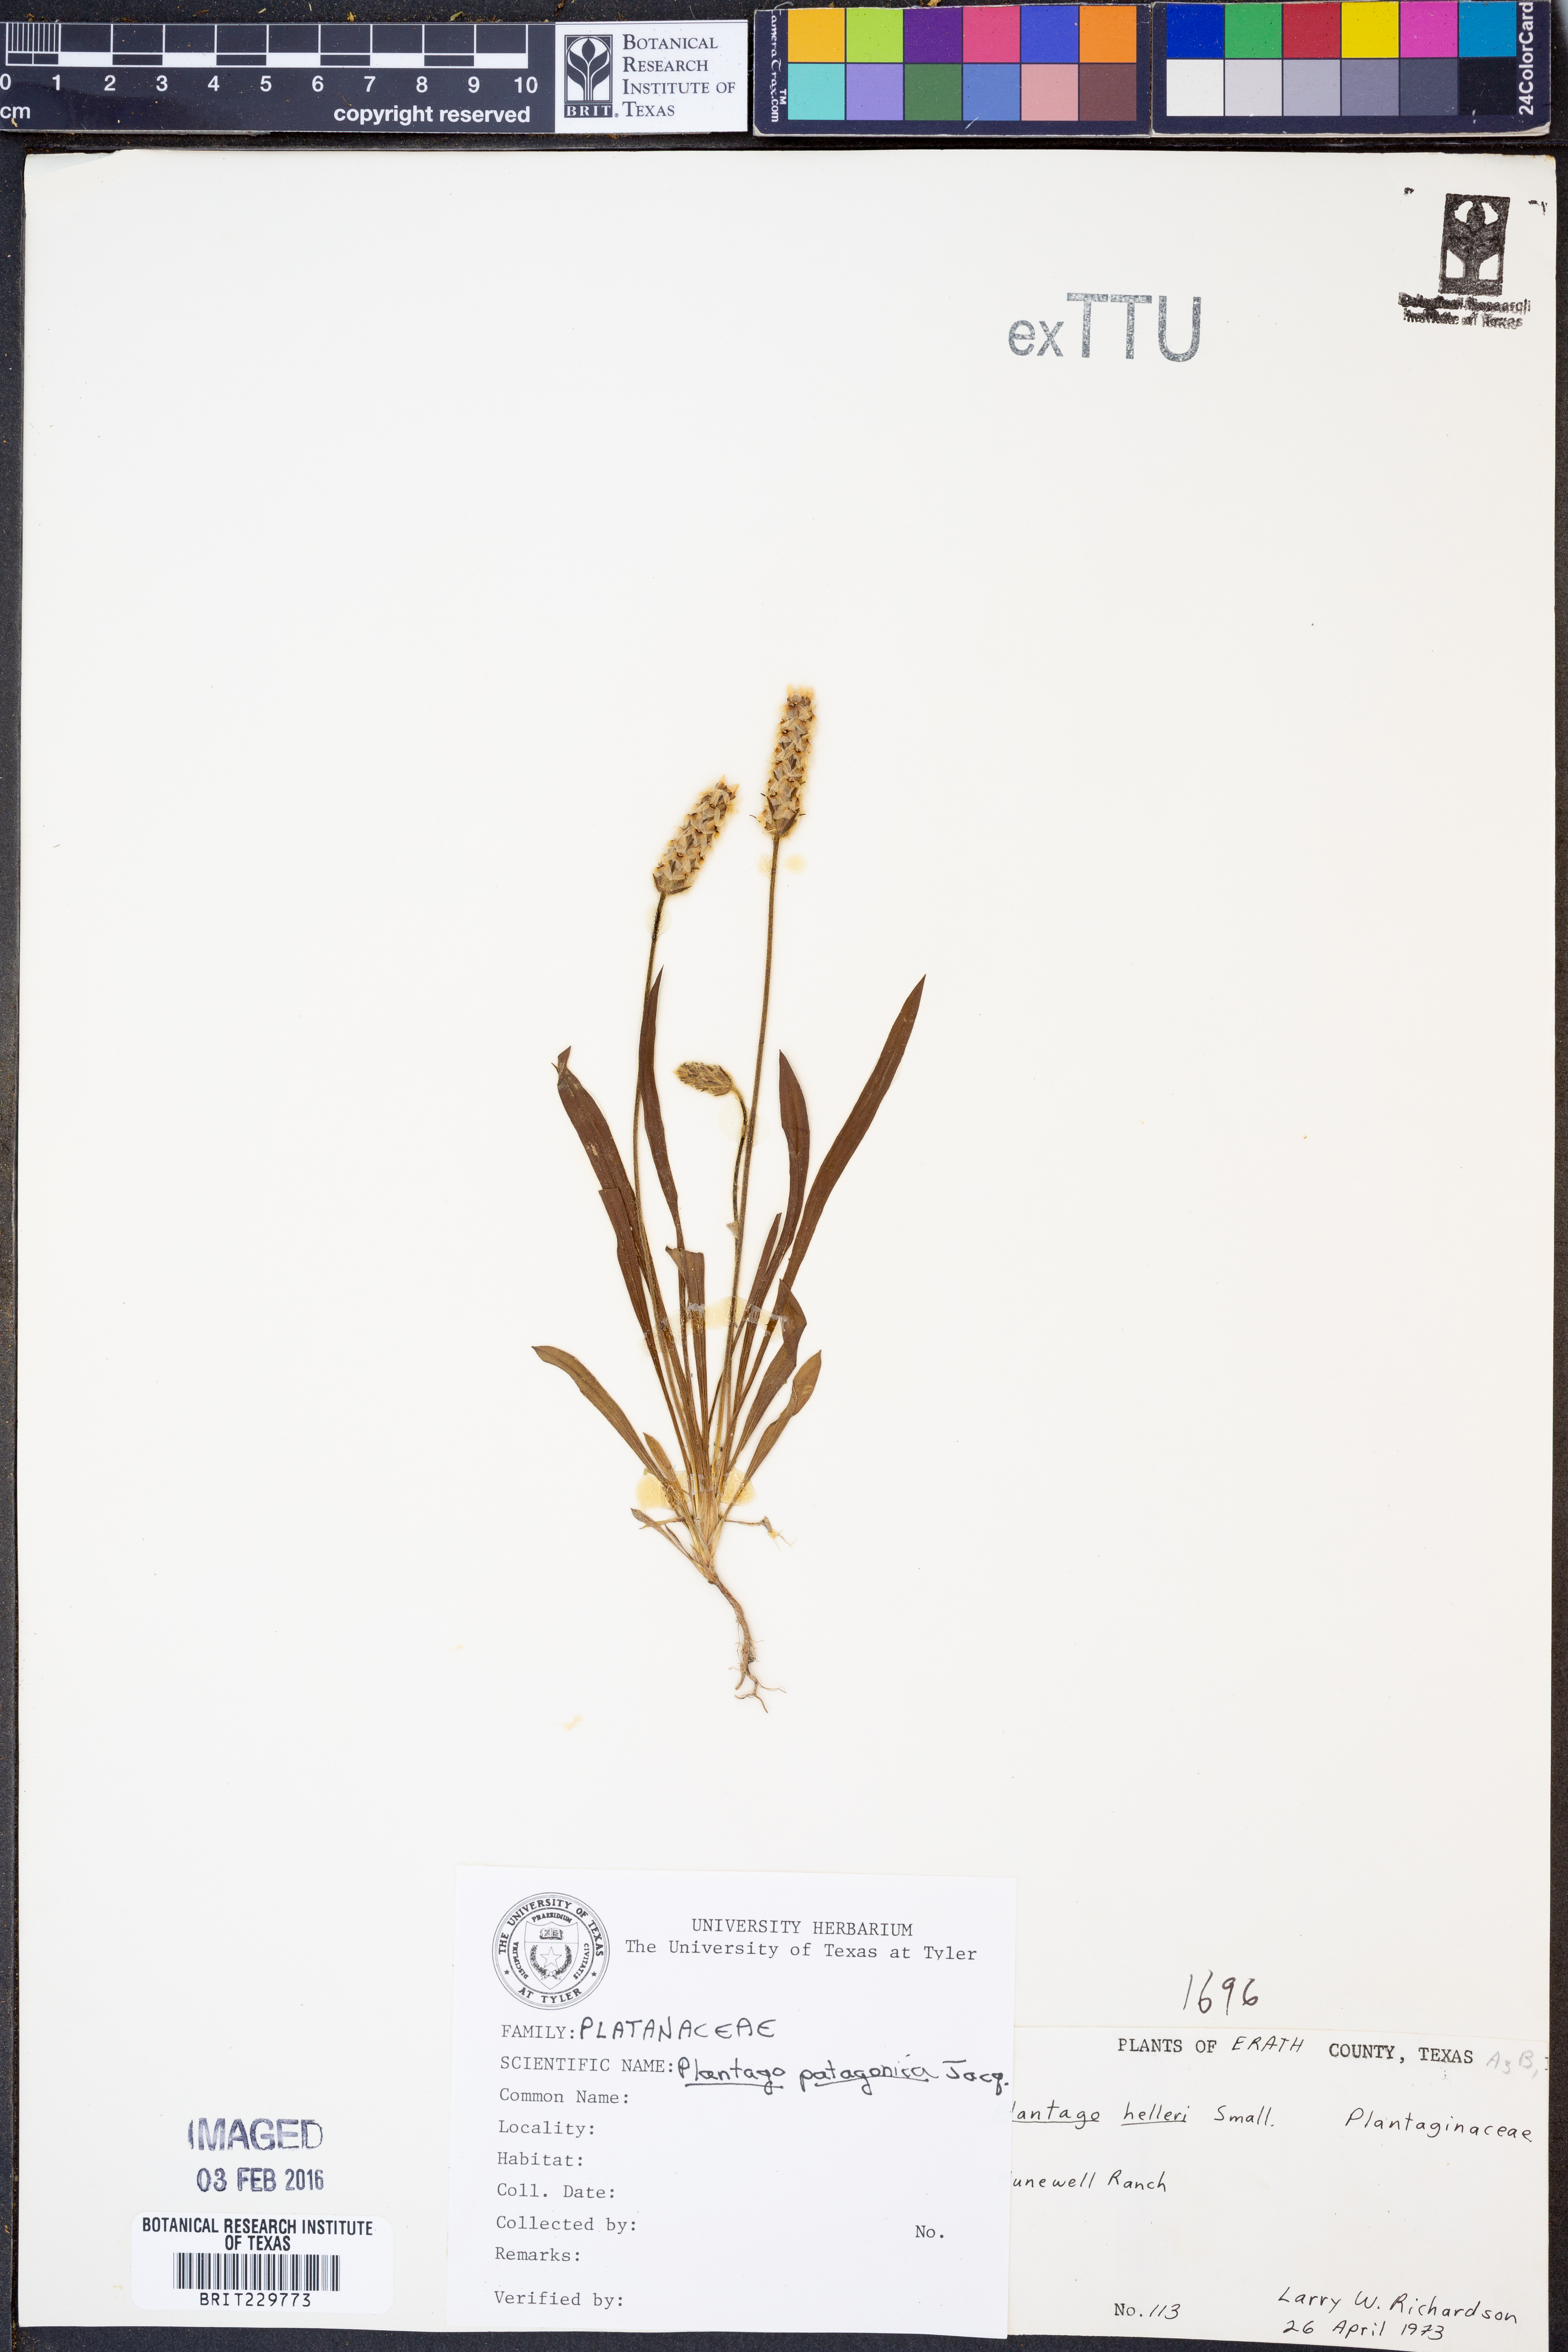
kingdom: Plantae
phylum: Tracheophyta
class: Magnoliopsida
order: Lamiales
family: Plantaginaceae
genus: Plantago
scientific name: Plantago patagonica
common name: Patagonia indian-wheat
